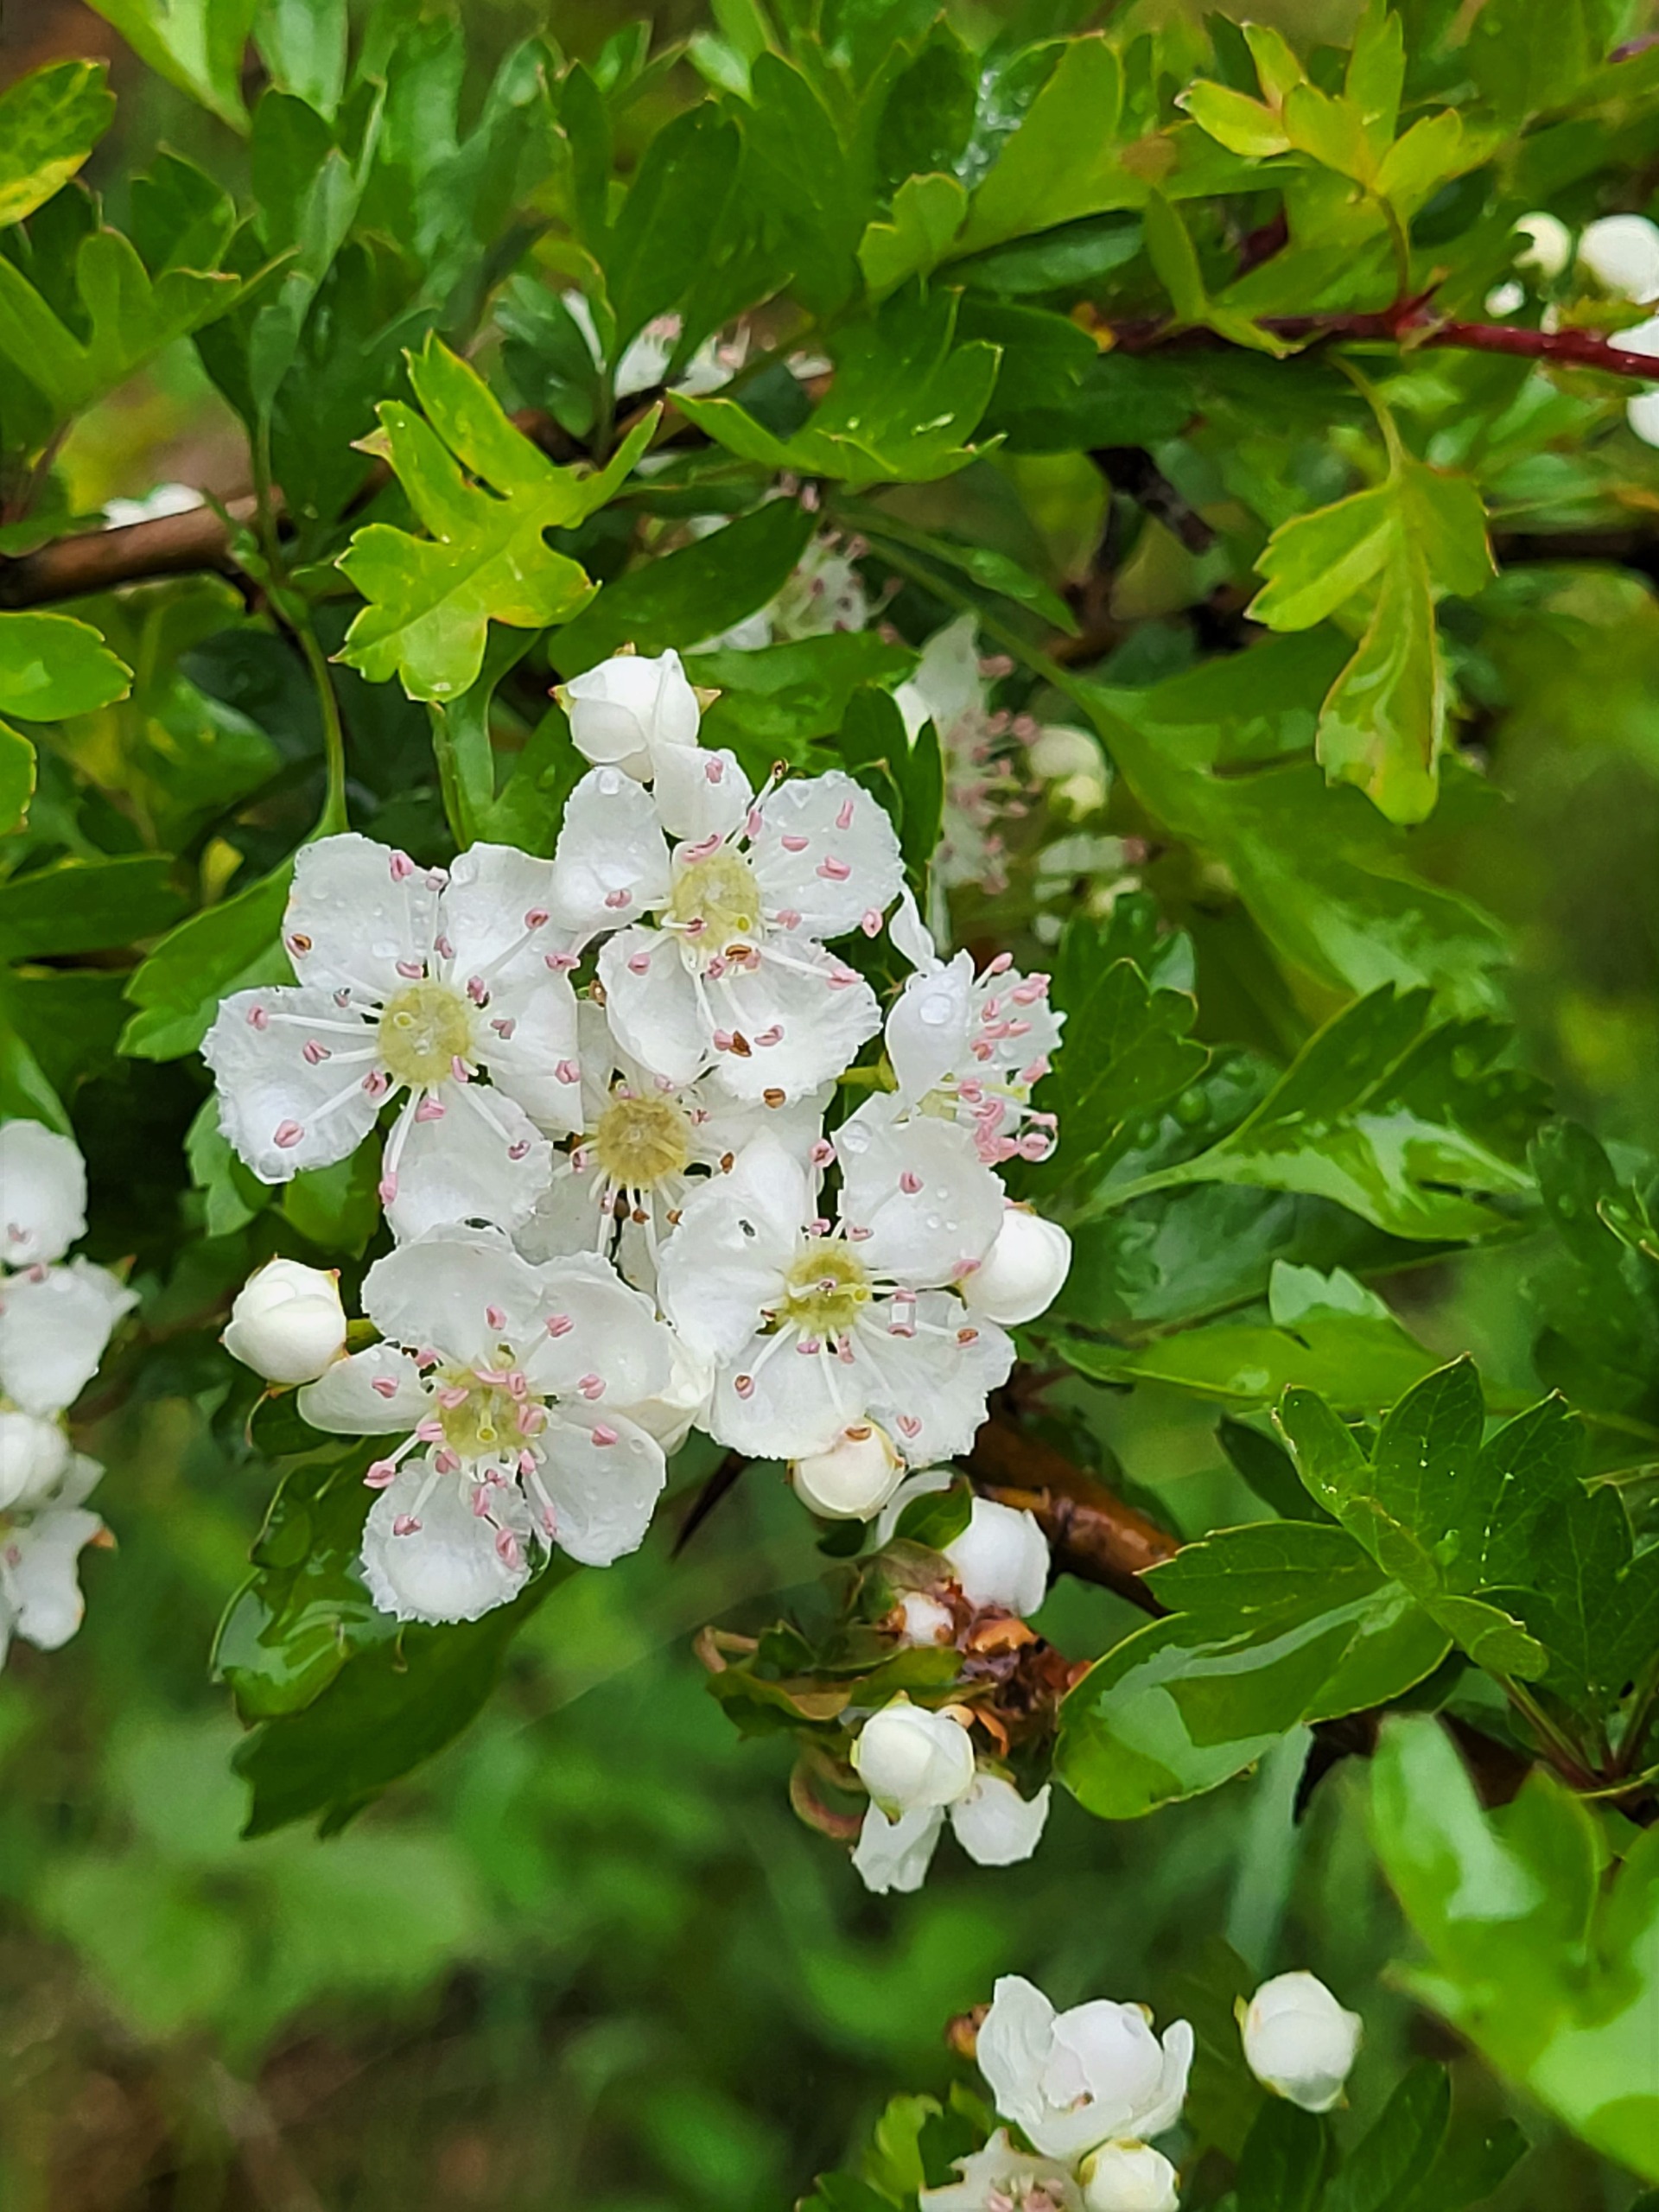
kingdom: Plantae
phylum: Tracheophyta
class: Magnoliopsida
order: Rosales
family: Rosaceae
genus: Crataegus
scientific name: Crataegus monogyna
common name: Engriflet hvidtjørn
